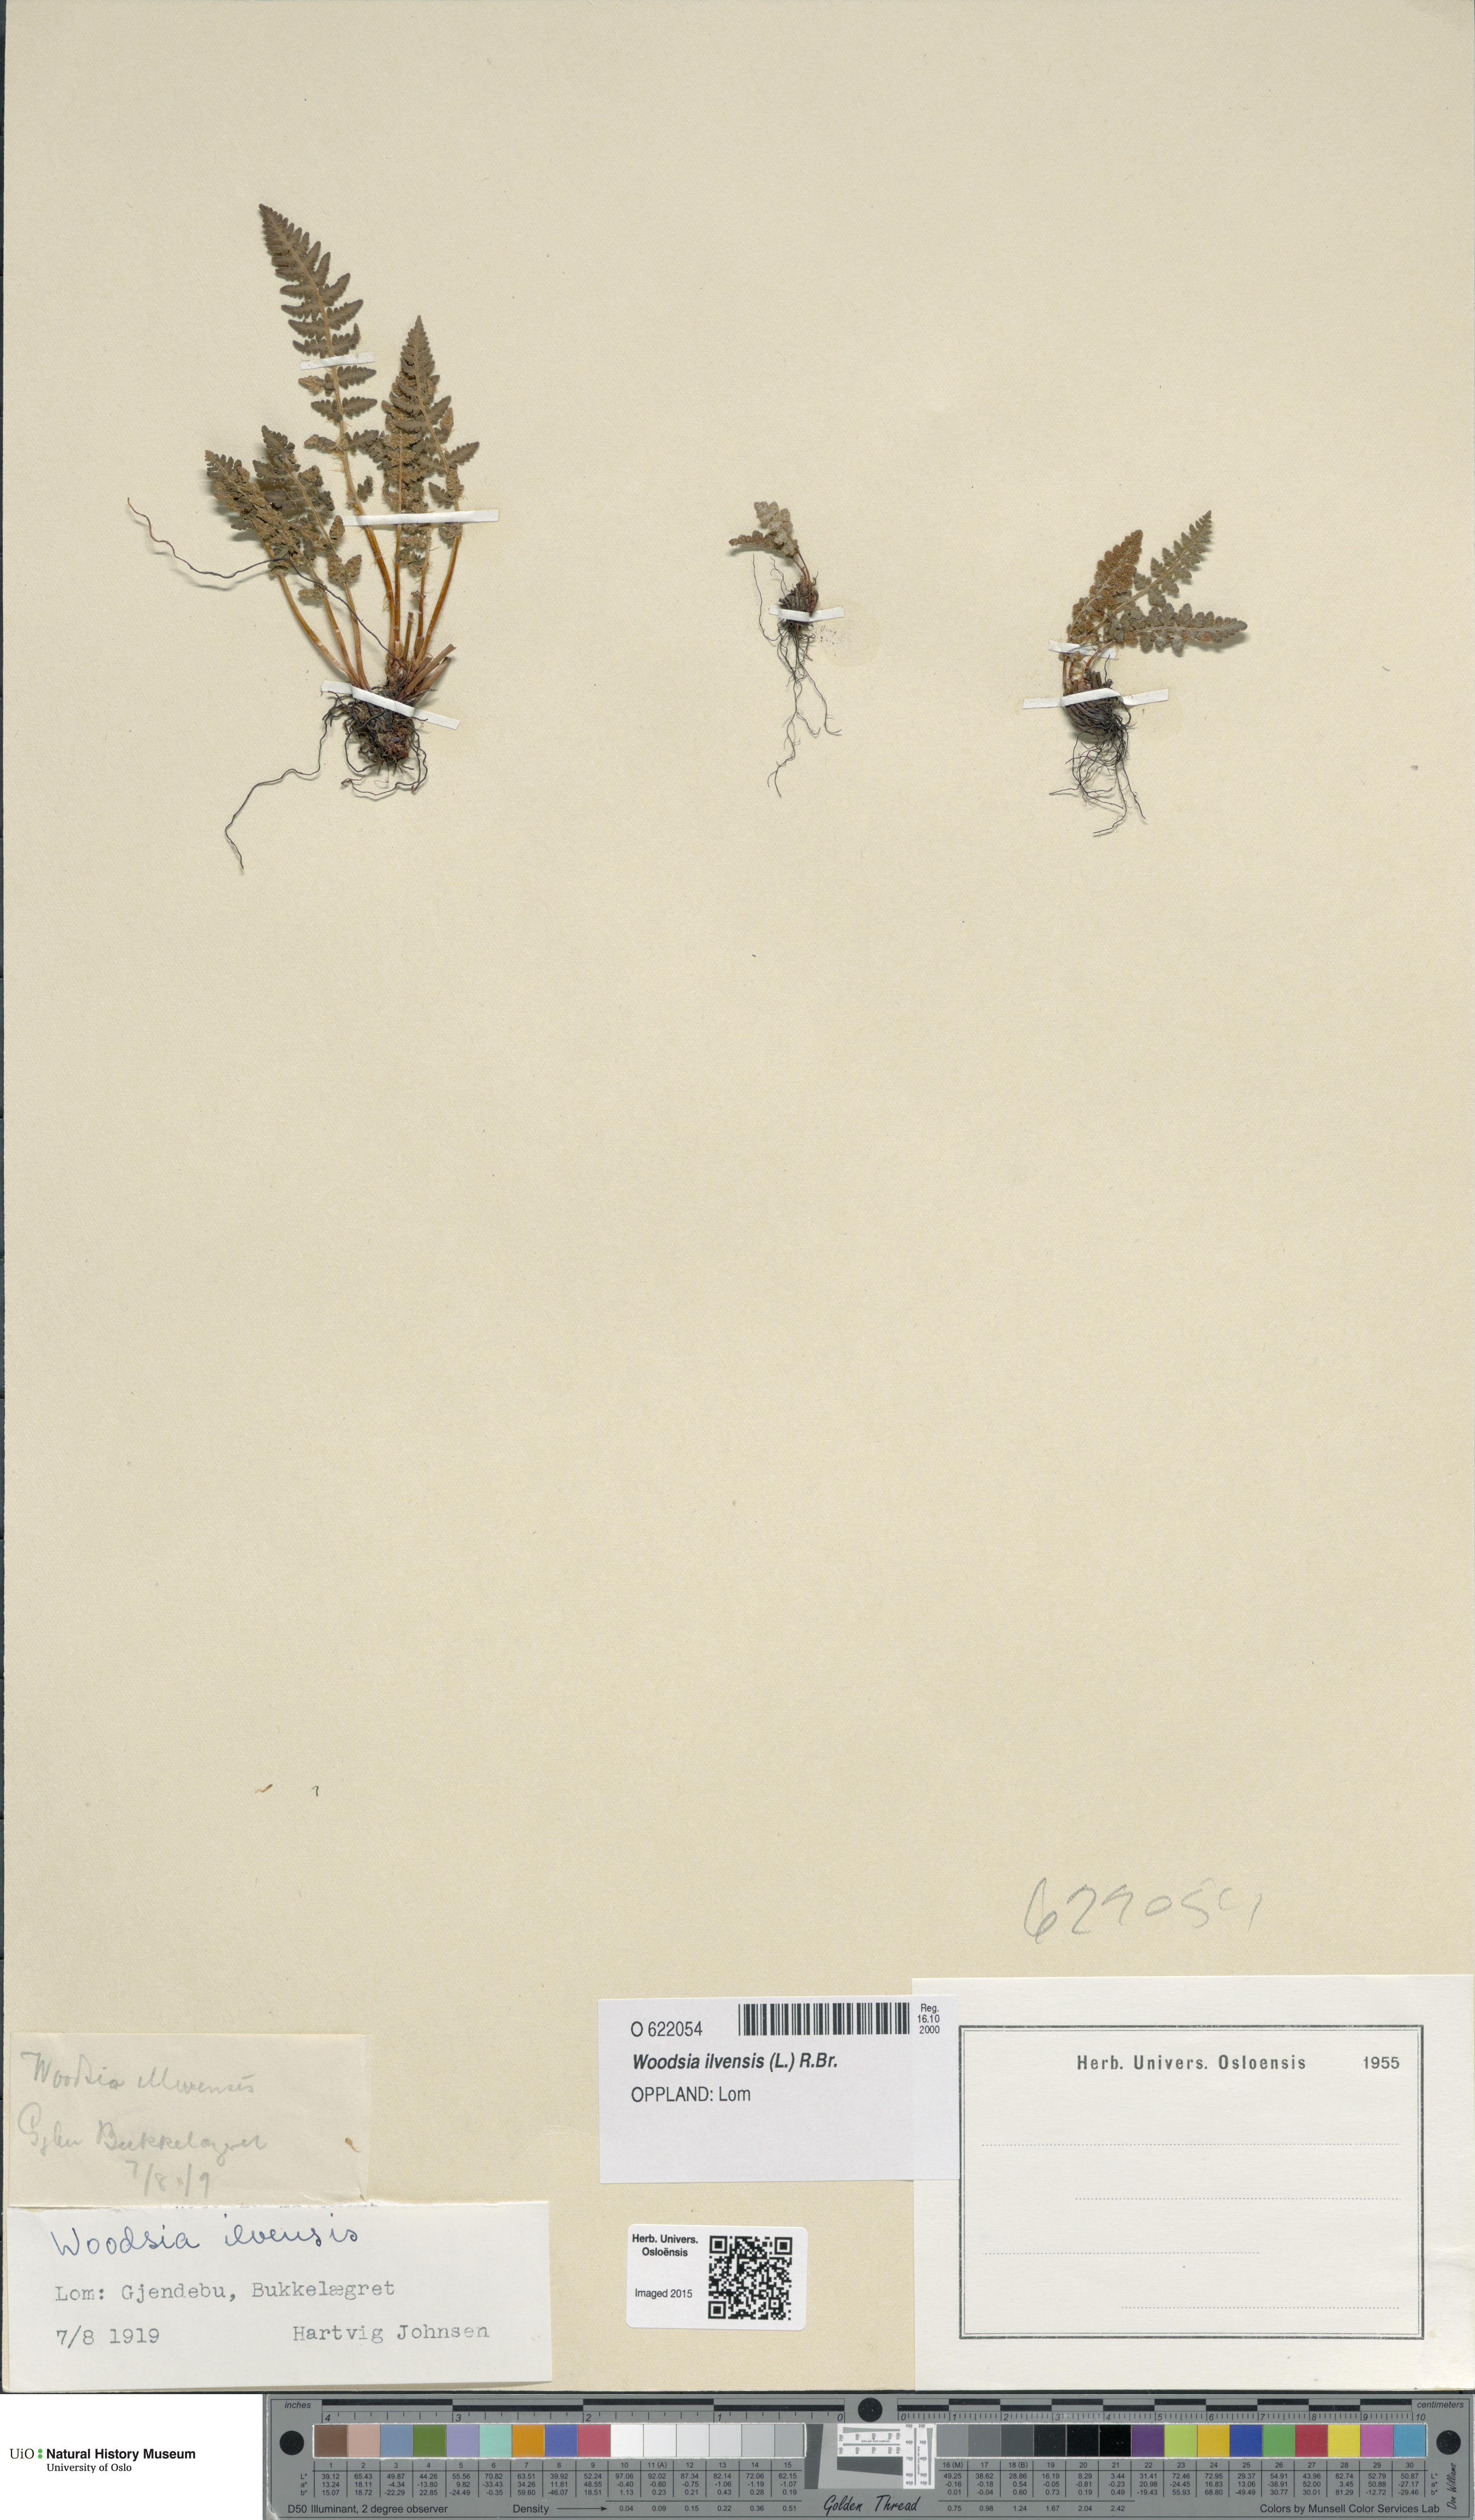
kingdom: Plantae
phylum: Tracheophyta
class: Polypodiopsida
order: Polypodiales
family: Woodsiaceae
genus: Woodsia
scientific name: Woodsia ilvensis
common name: Fragrant woodsia
